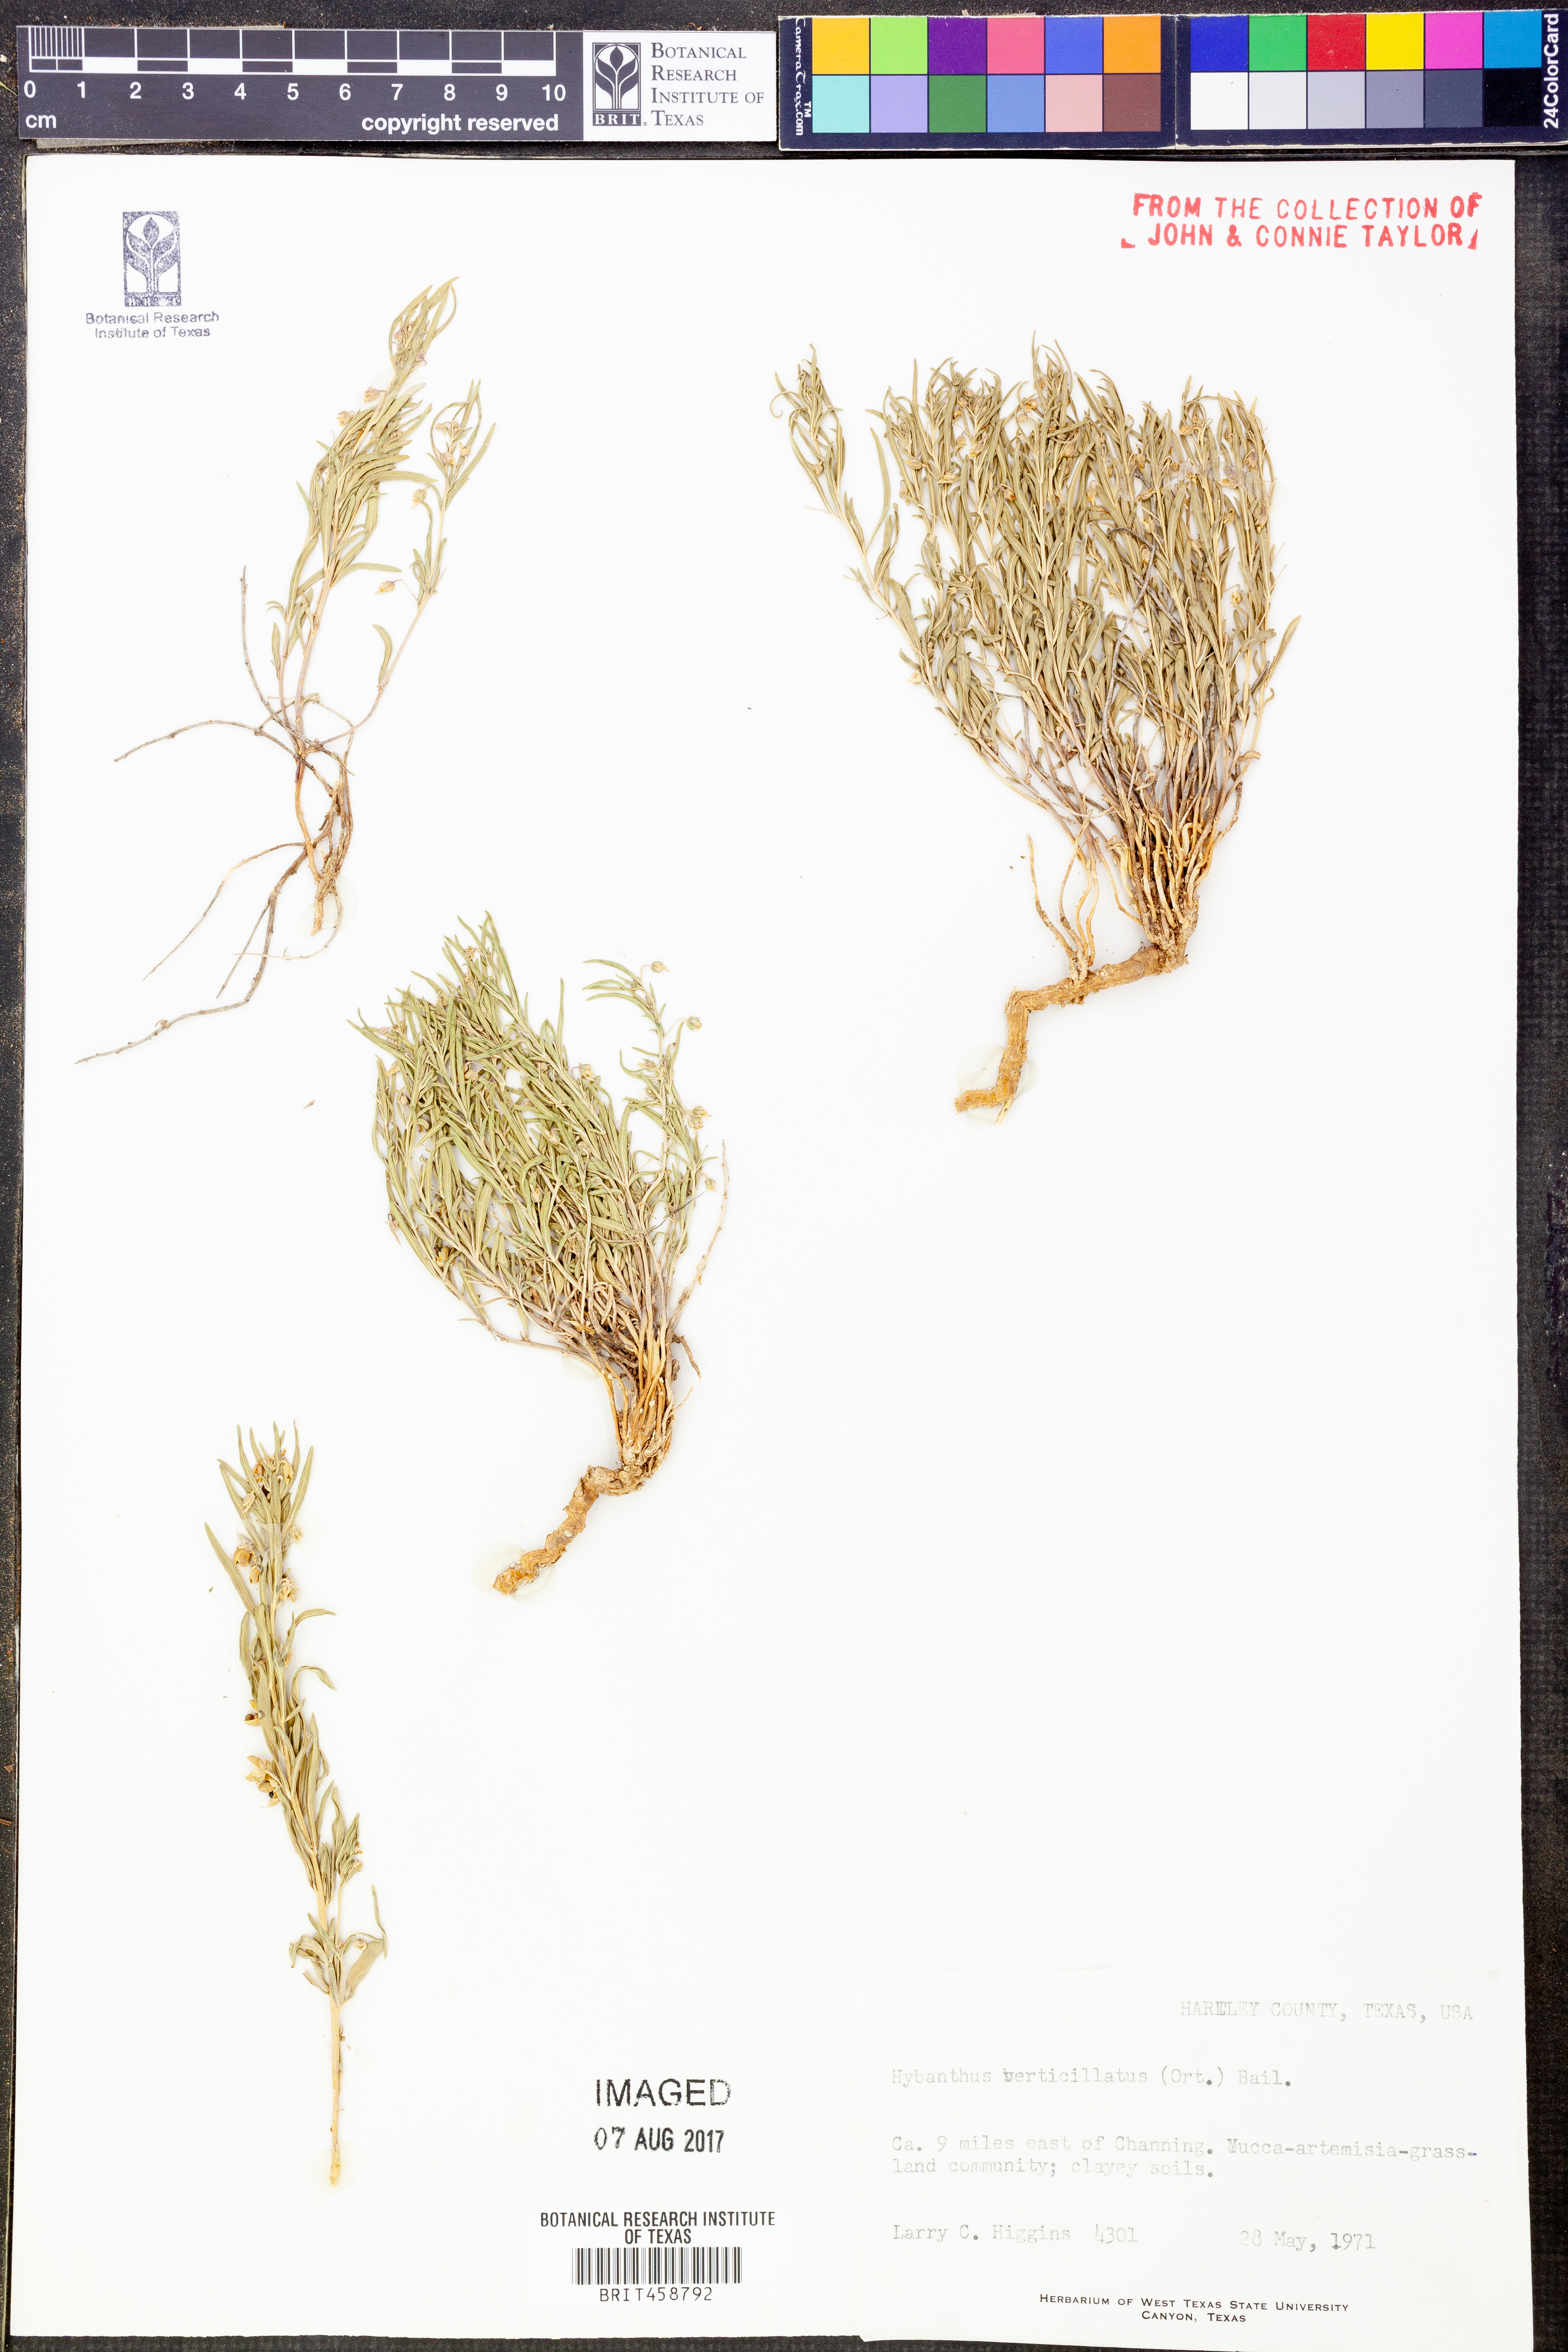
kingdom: Plantae
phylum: Tracheophyta
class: Magnoliopsida
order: Malpighiales
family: Violaceae
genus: Pombalia
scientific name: Pombalia verticillata
